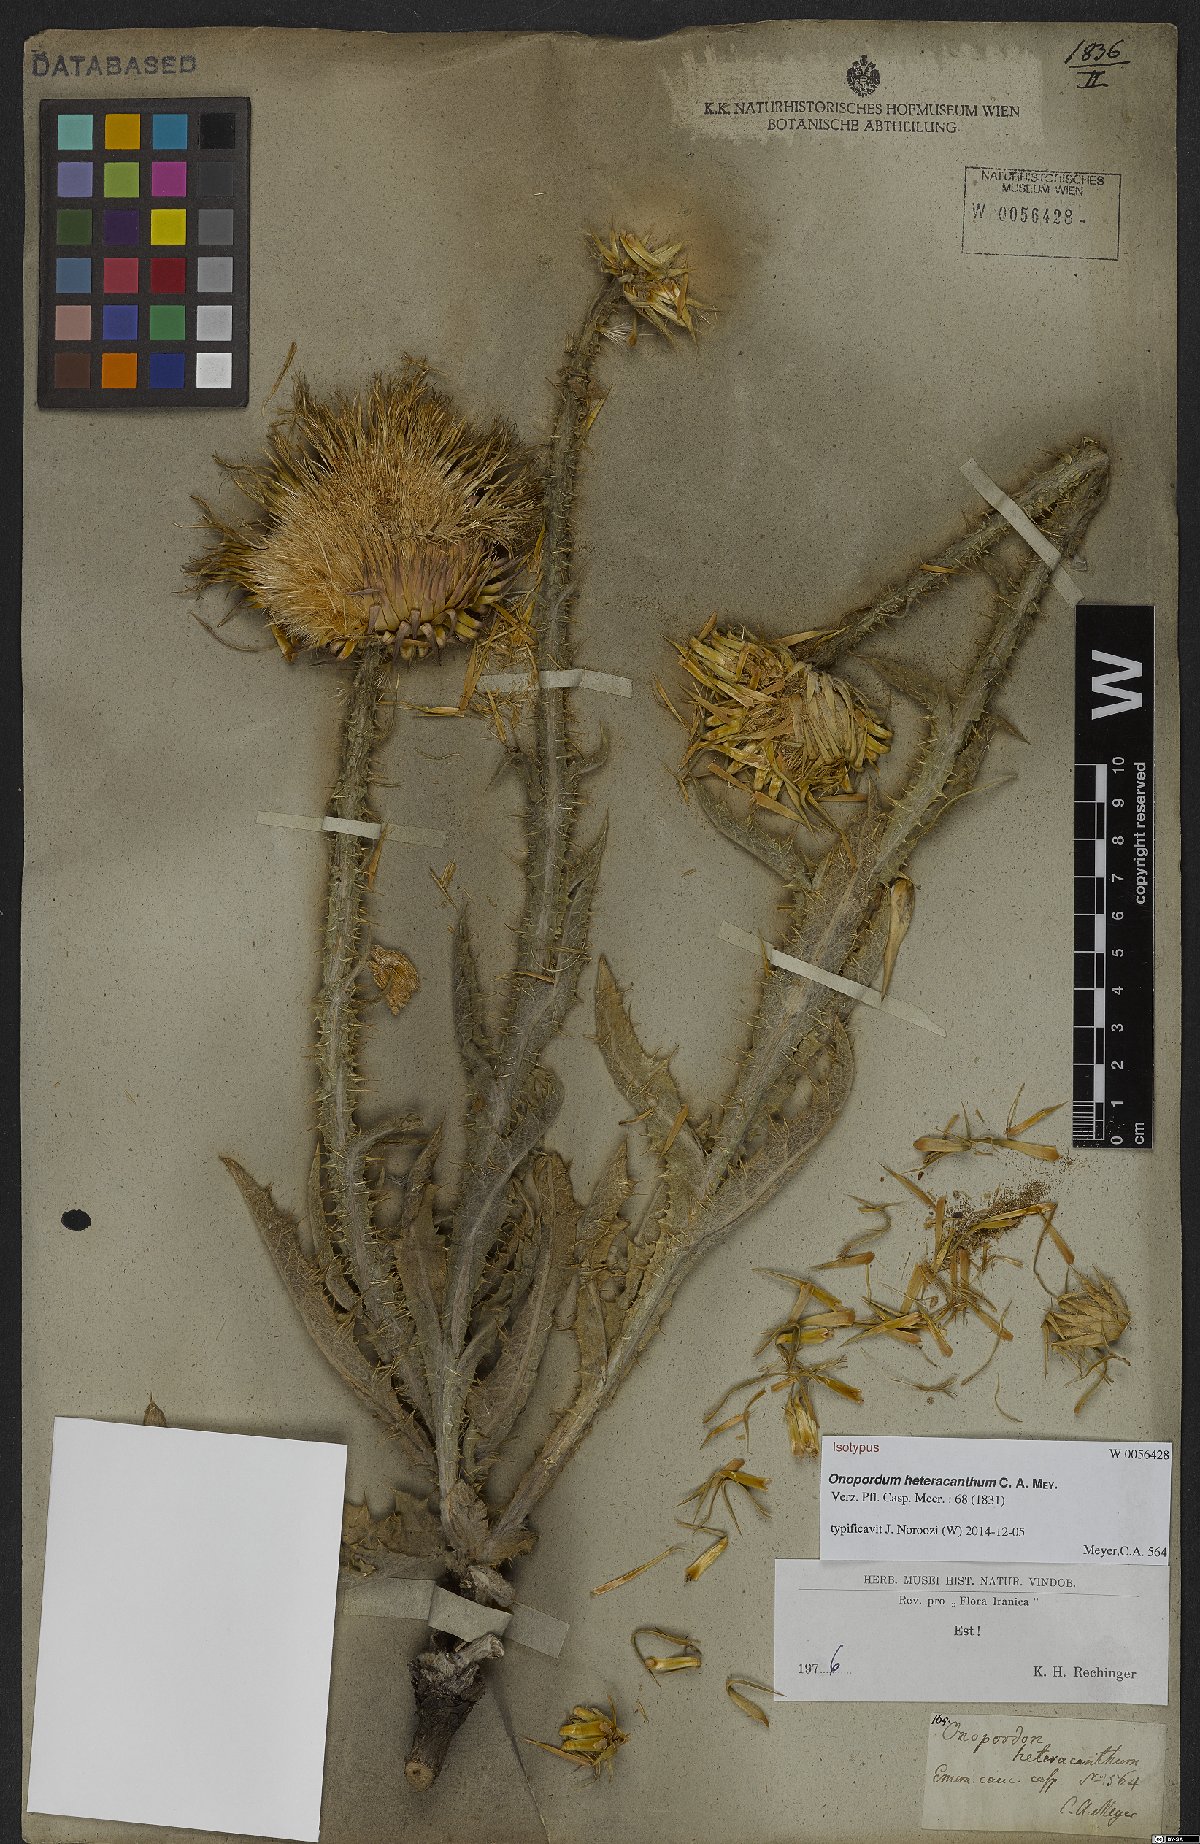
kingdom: Plantae
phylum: Tracheophyta
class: Magnoliopsida
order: Asterales
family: Asteraceae
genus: Onopordum
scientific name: Onopordum heteracanthum
